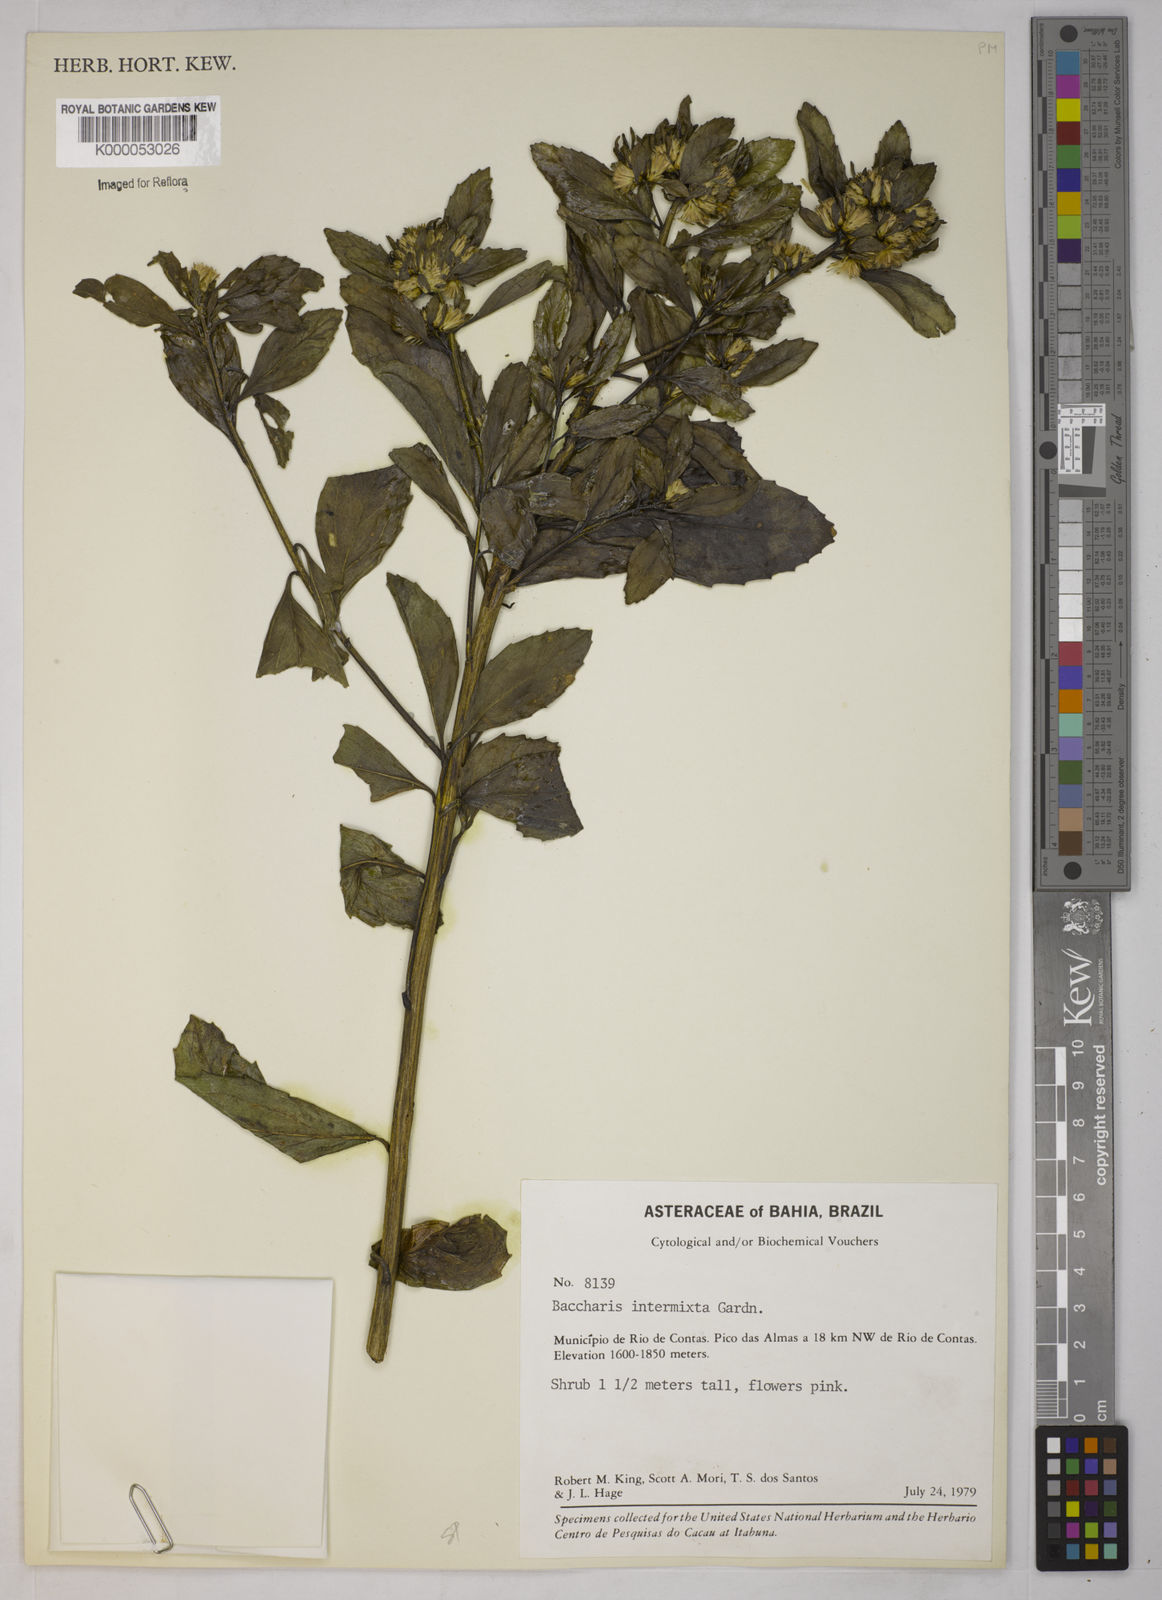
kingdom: Plantae
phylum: Tracheophyta
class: Magnoliopsida
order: Asterales
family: Asteraceae
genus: Baccharis
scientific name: Baccharis intermixta
